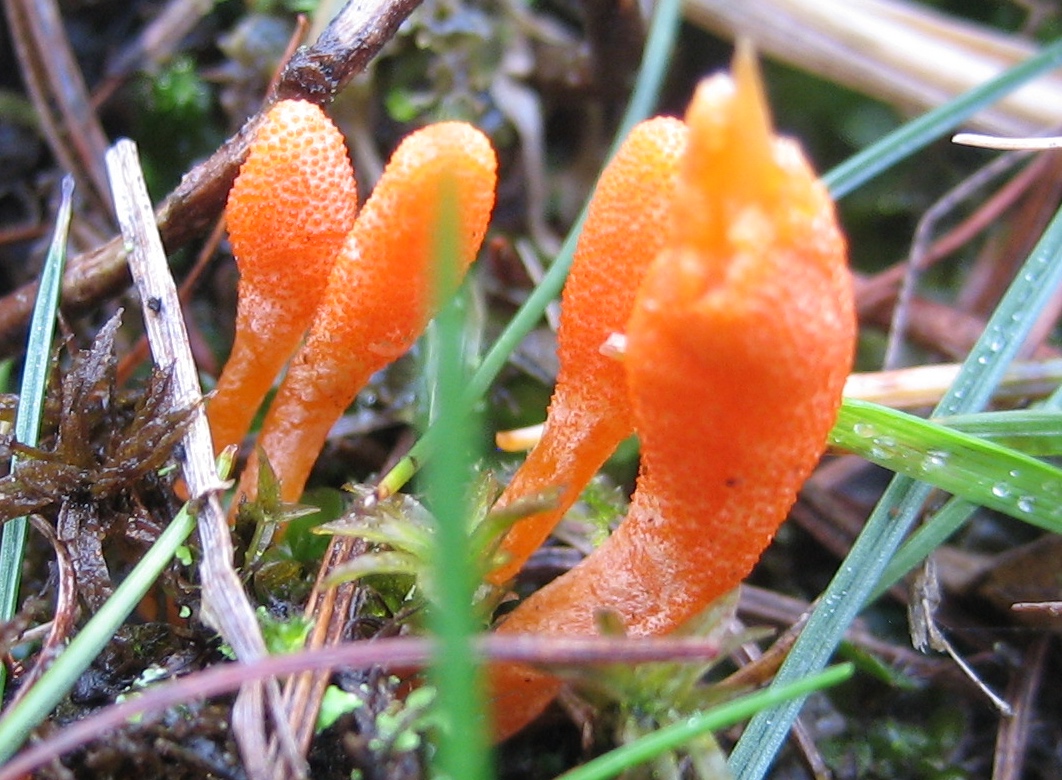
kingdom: Fungi
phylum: Ascomycota
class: Sordariomycetes
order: Hypocreales
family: Cordycipitaceae
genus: Cordyceps
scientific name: Cordyceps militaris
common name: puppe-snyltekølle
